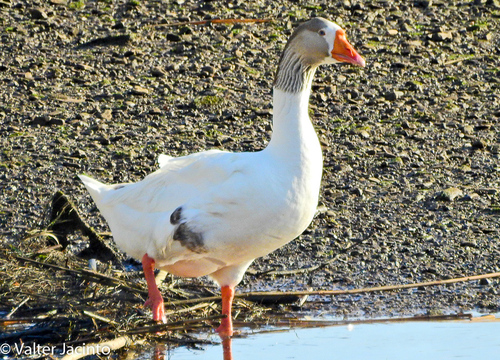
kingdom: Animalia
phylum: Chordata
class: Aves
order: Anseriformes
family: Anatidae
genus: Anser
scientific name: Anser anser
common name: Greylag goose
